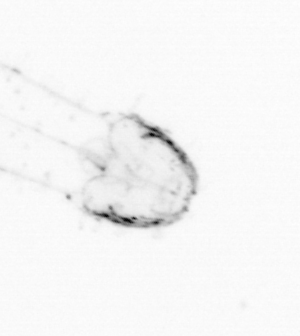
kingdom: Animalia
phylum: Chaetognatha
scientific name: Chaetognatha
